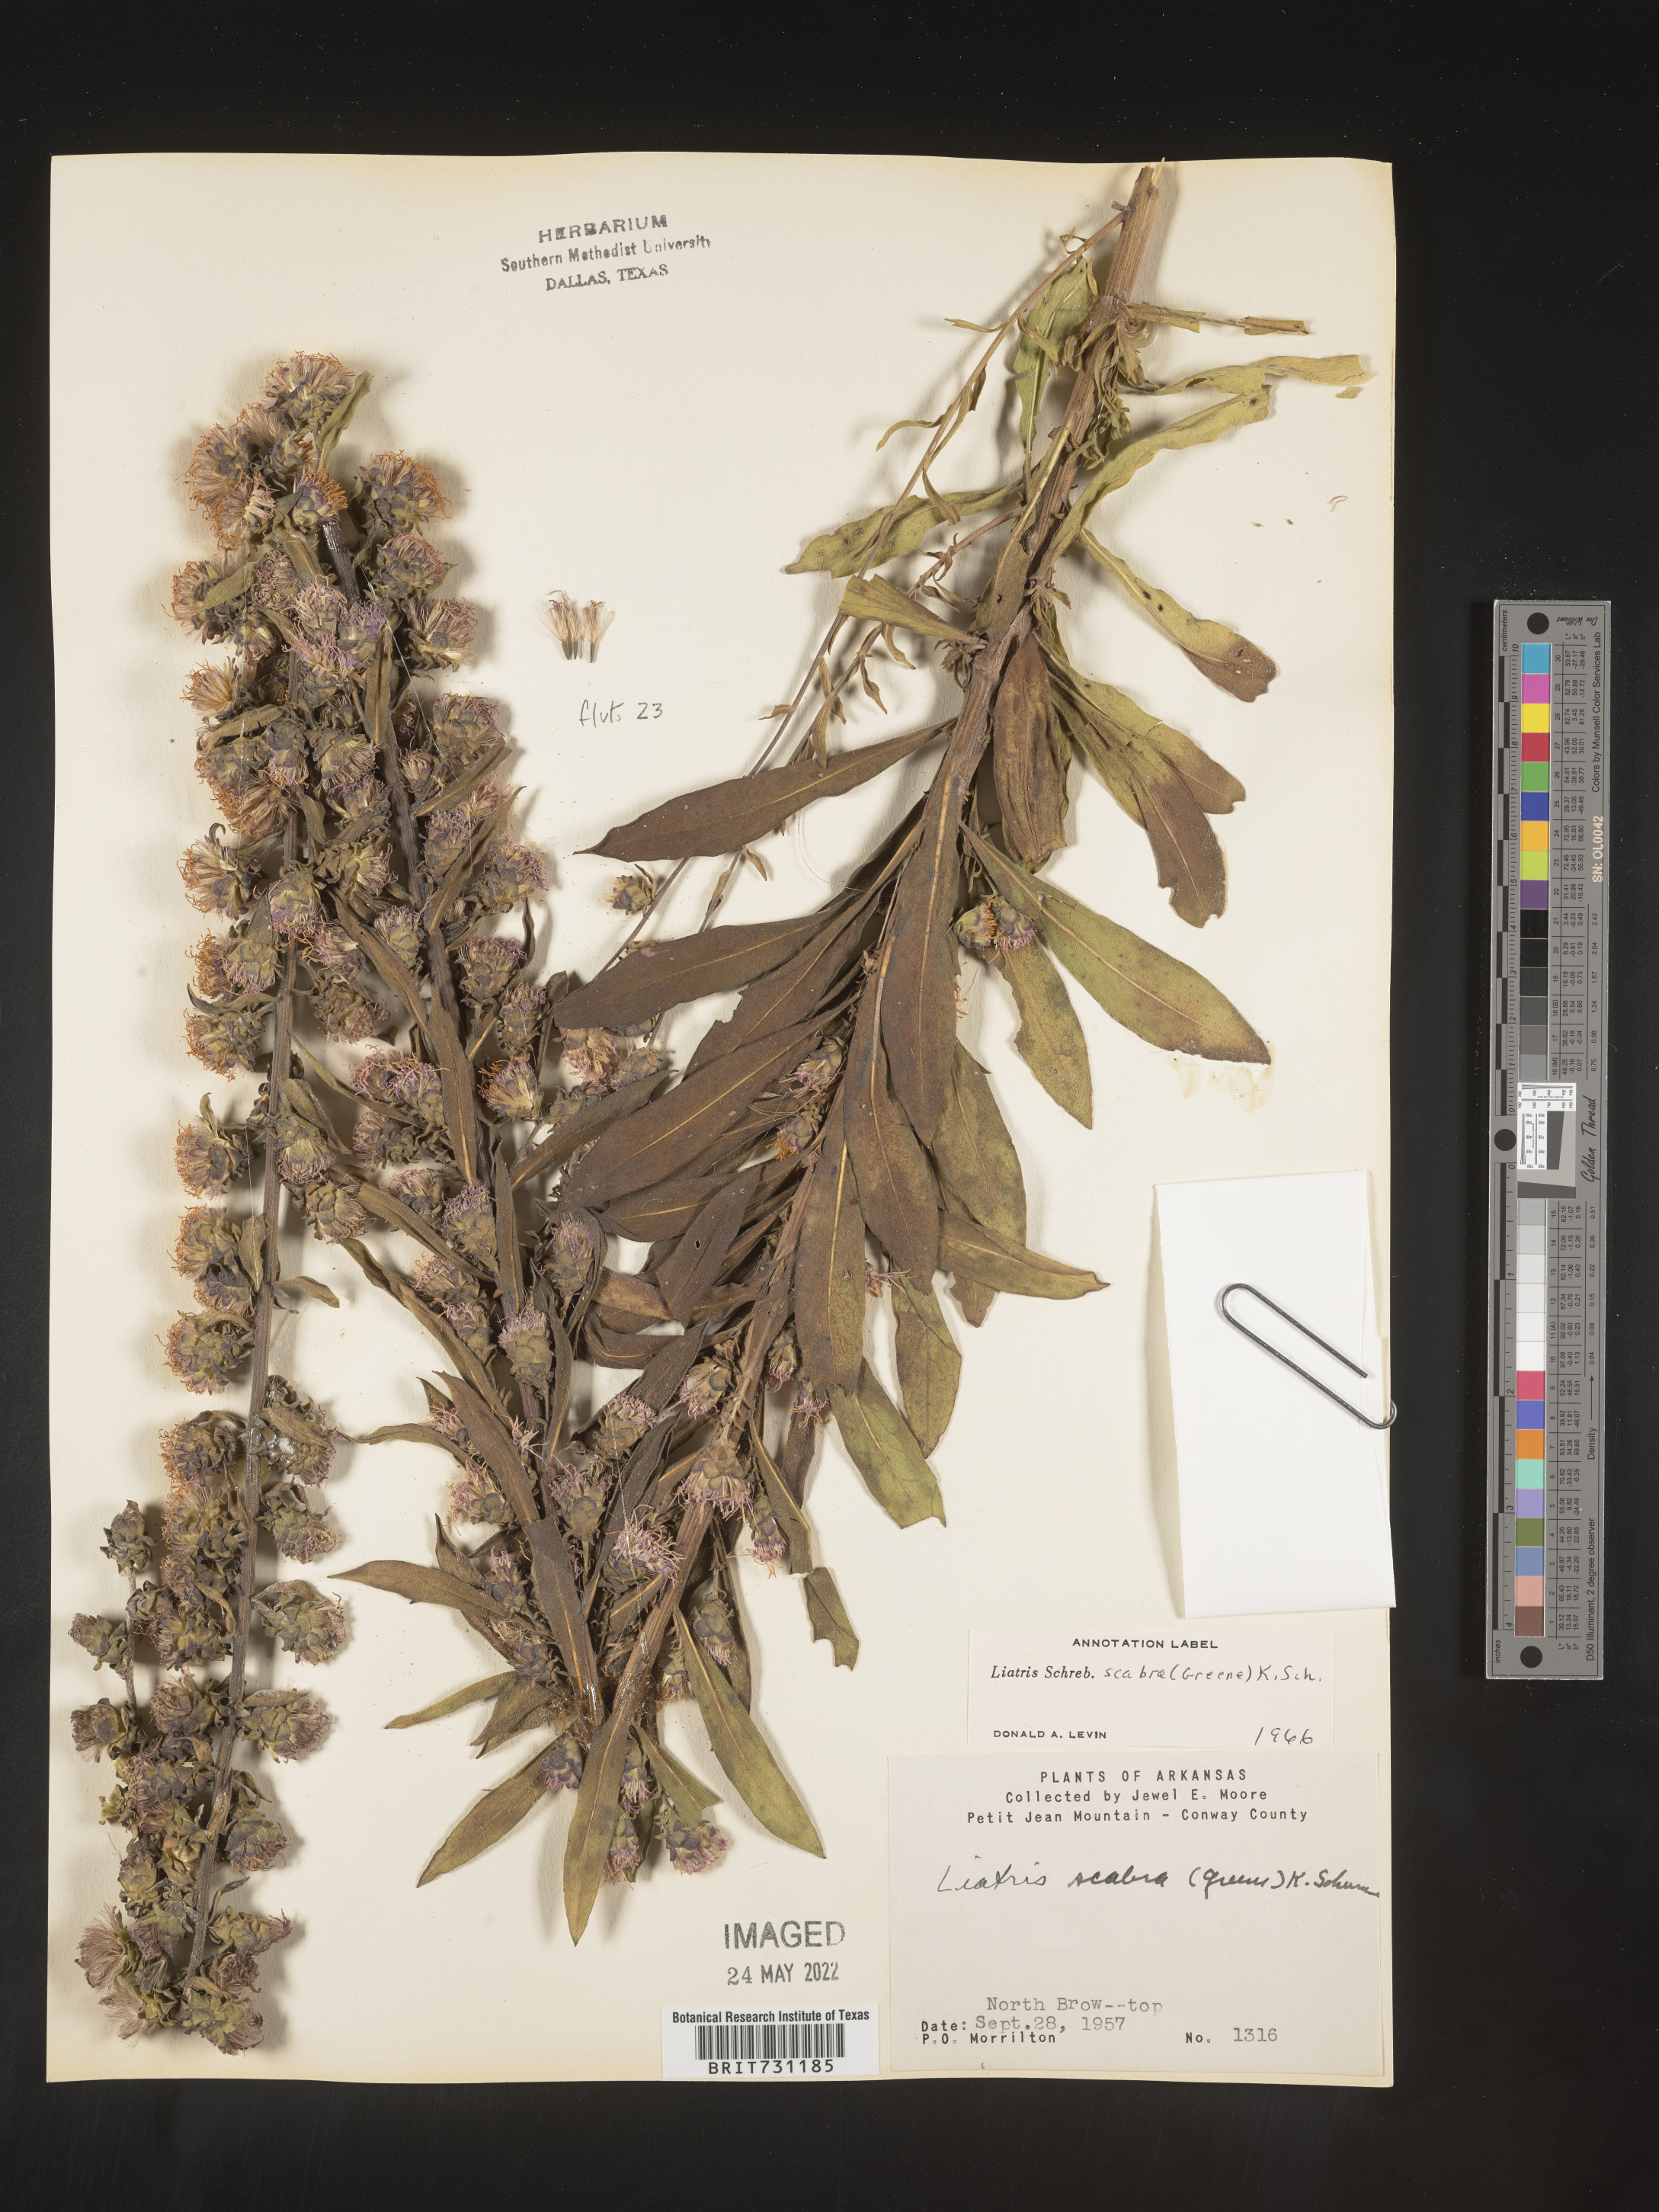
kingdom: Plantae
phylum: Tracheophyta
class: Magnoliopsida
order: Asterales
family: Asteraceae
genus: Liatris
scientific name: Liatris squarrulosa
